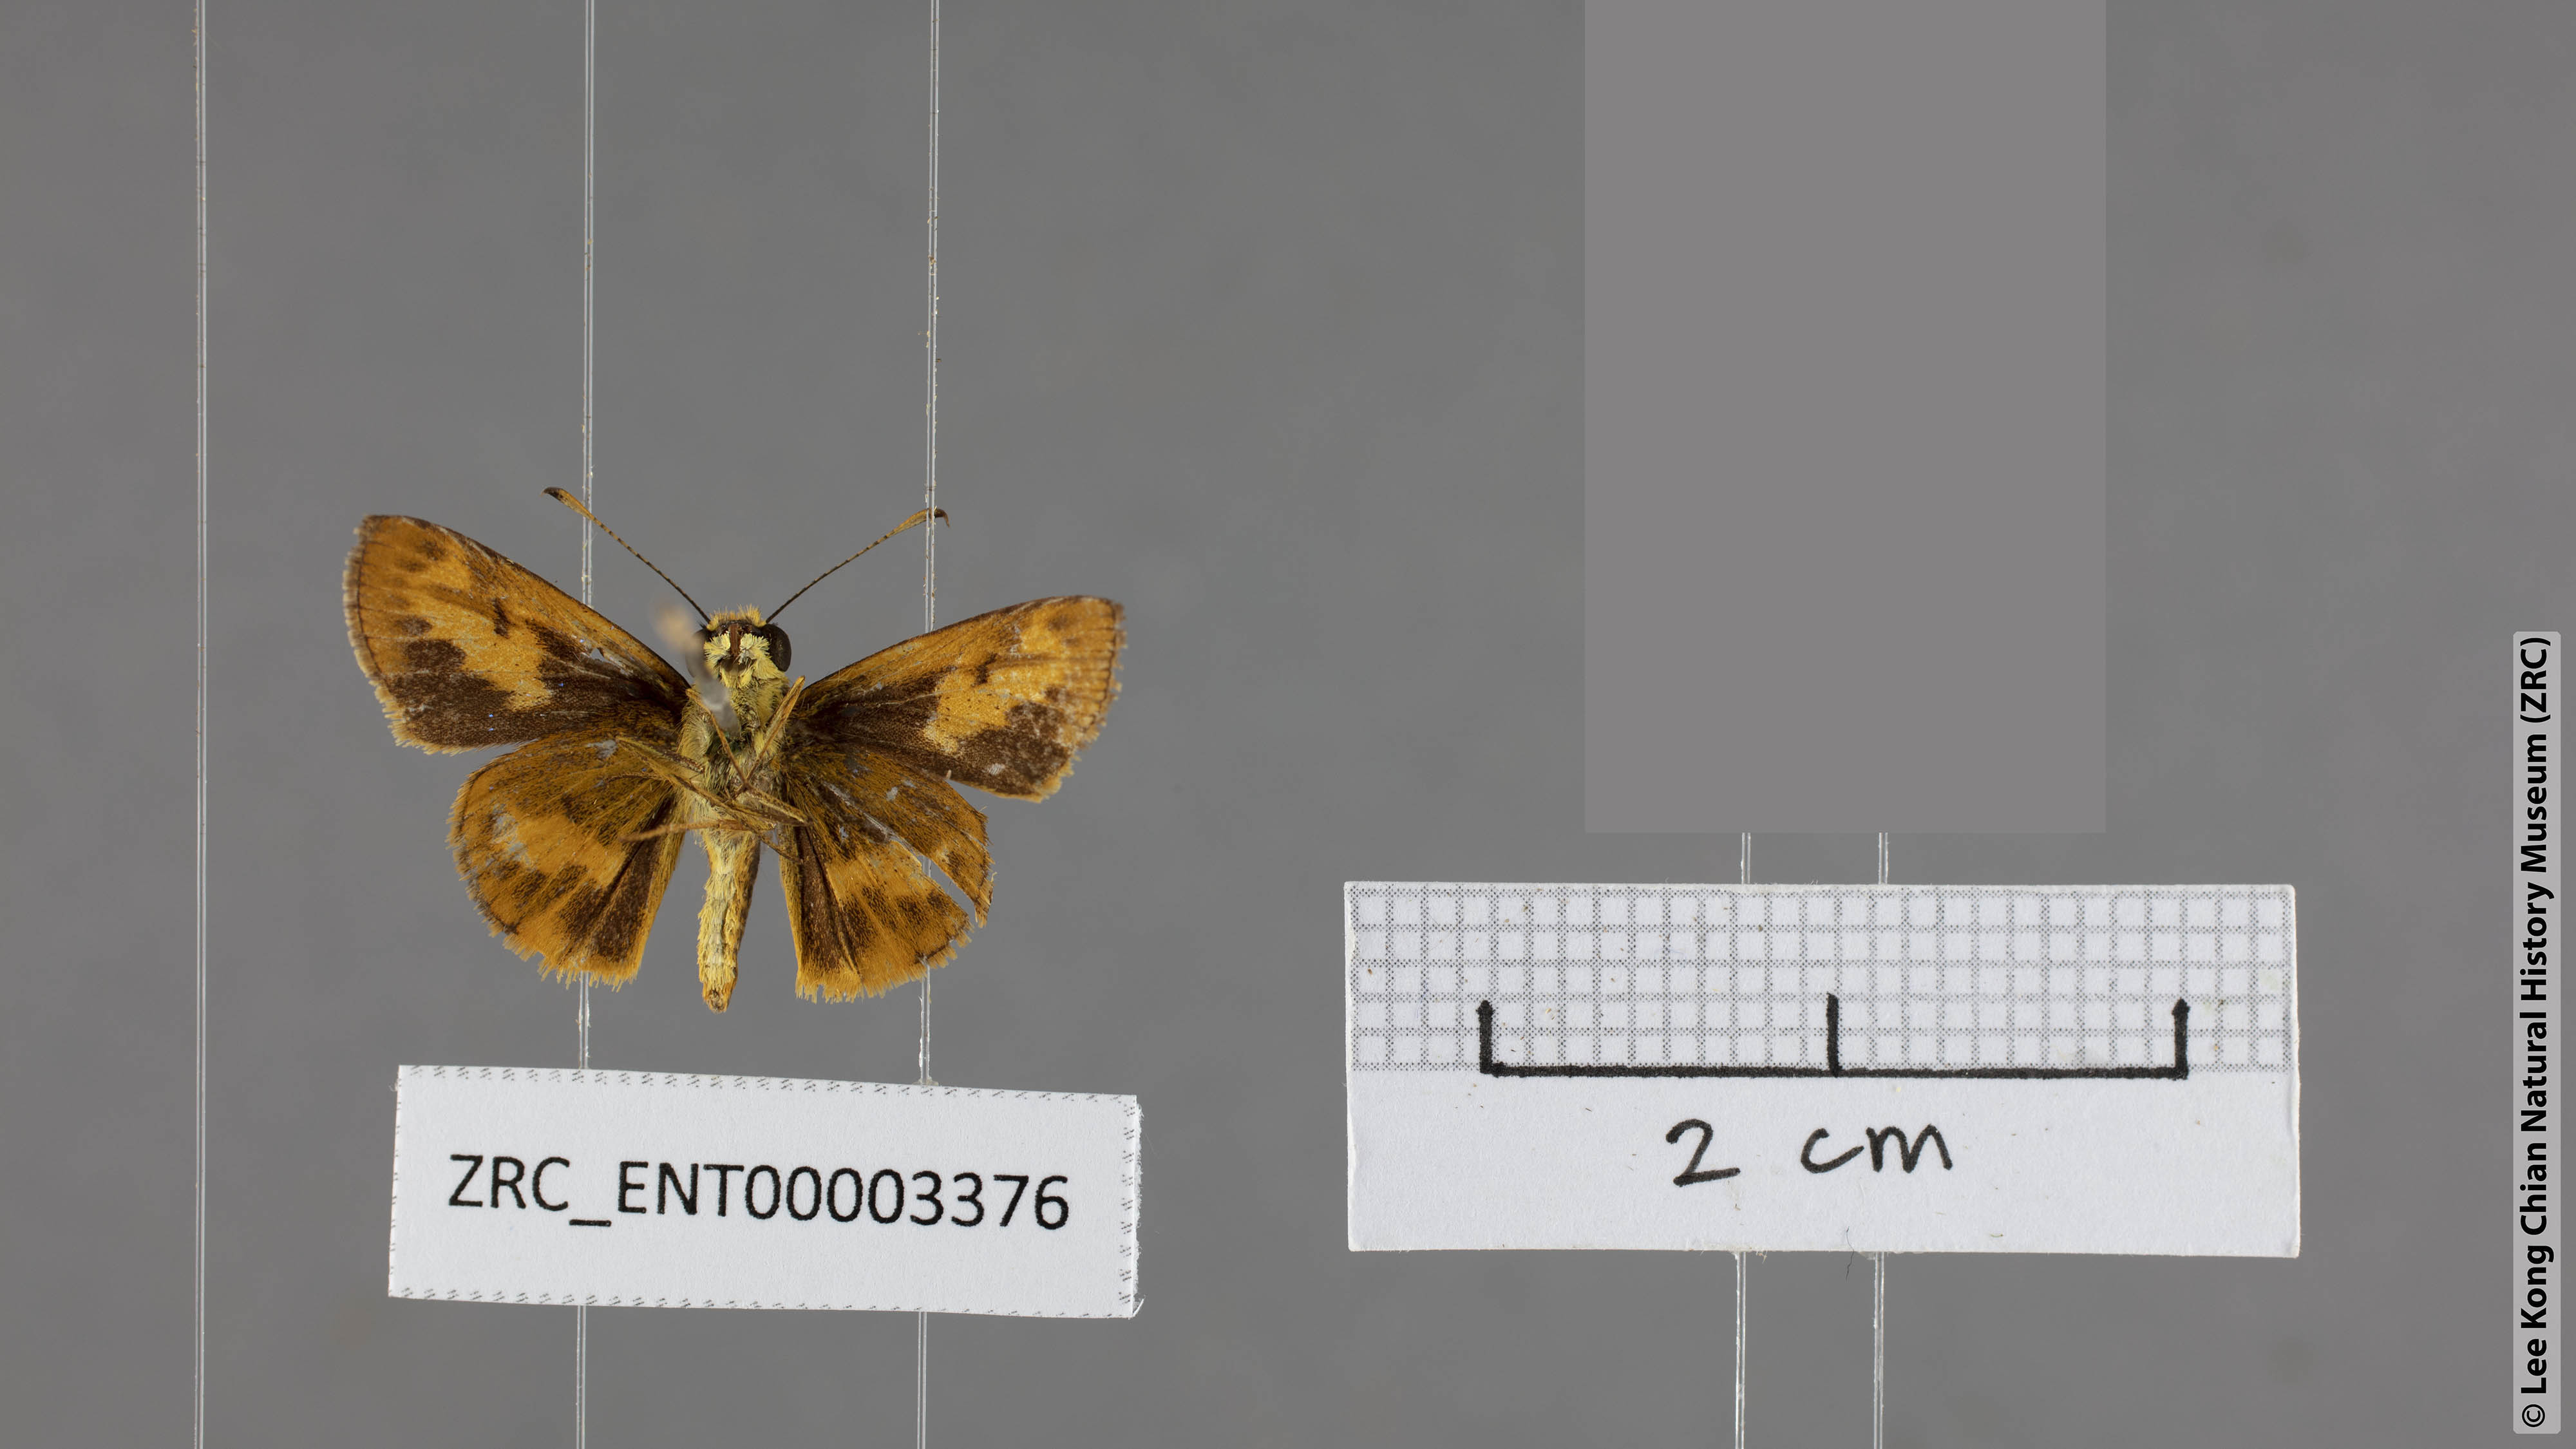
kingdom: Animalia
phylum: Arthropoda
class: Insecta
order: Lepidoptera
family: Hesperiidae
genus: Oriens
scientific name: Oriens goloides
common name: Smaller dartlet
